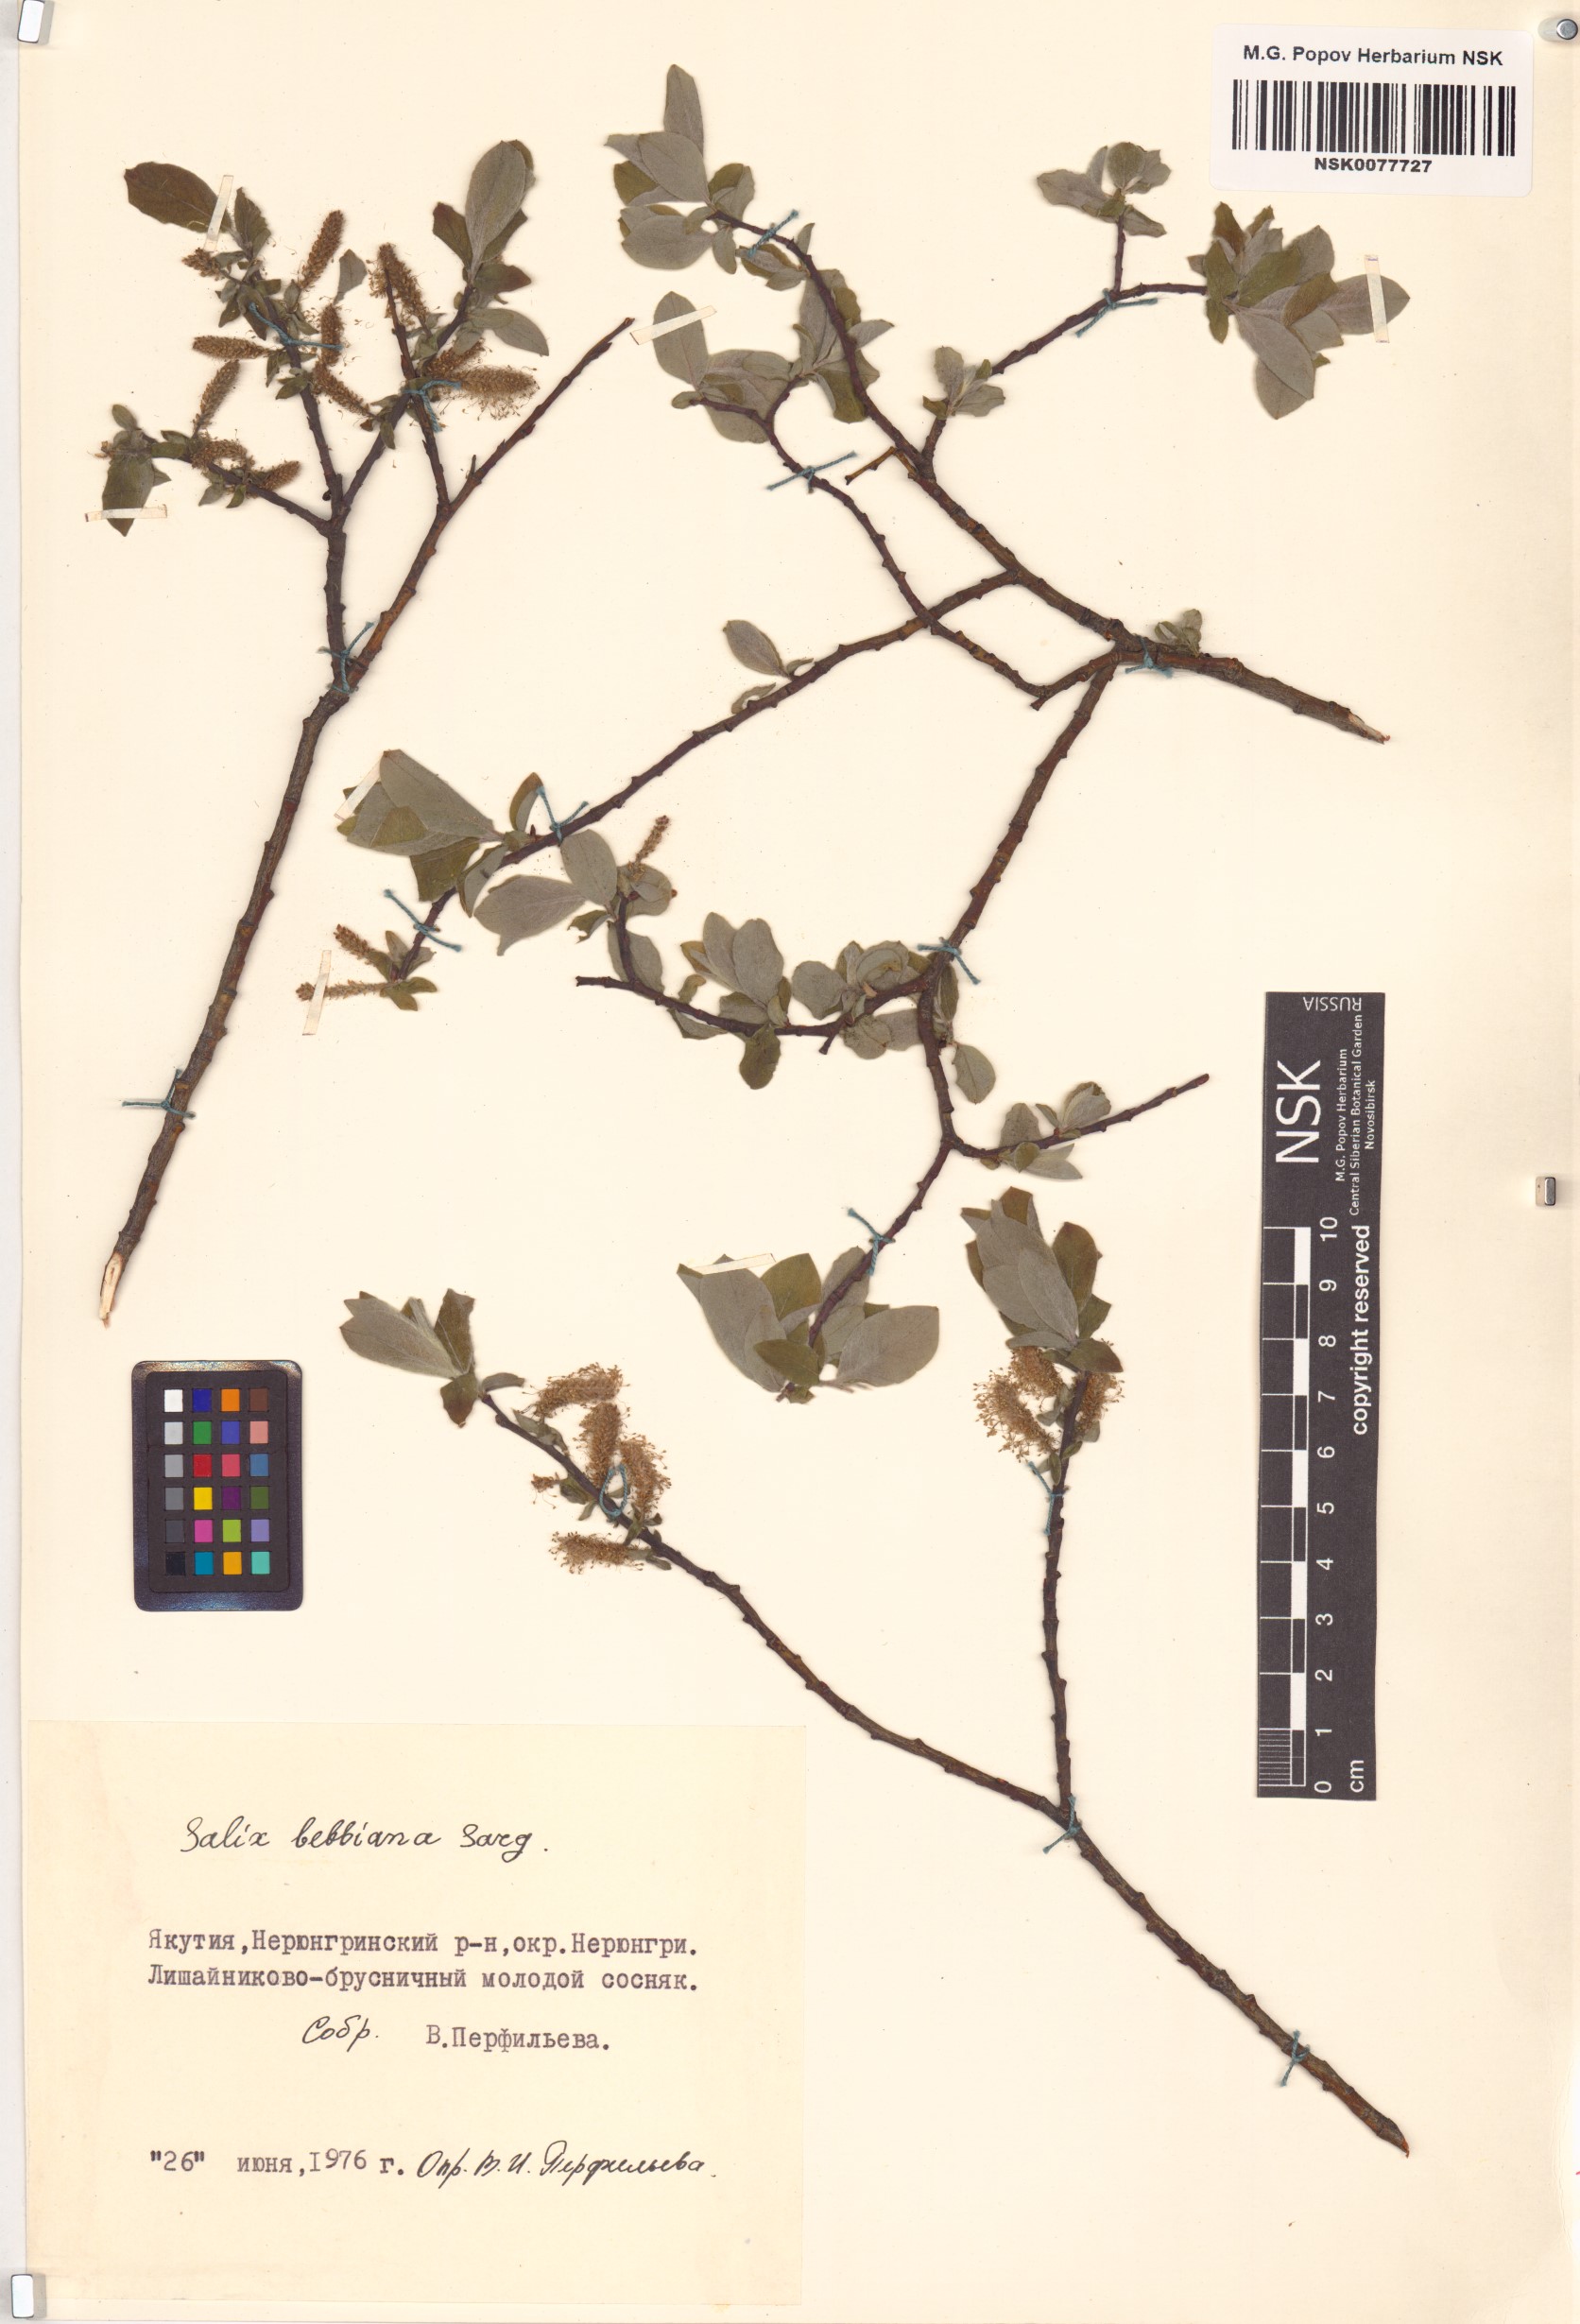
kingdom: Plantae
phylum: Tracheophyta
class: Magnoliopsida
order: Malpighiales
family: Salicaceae
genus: Salix
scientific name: Salix bebbiana
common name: Bebb's willow
